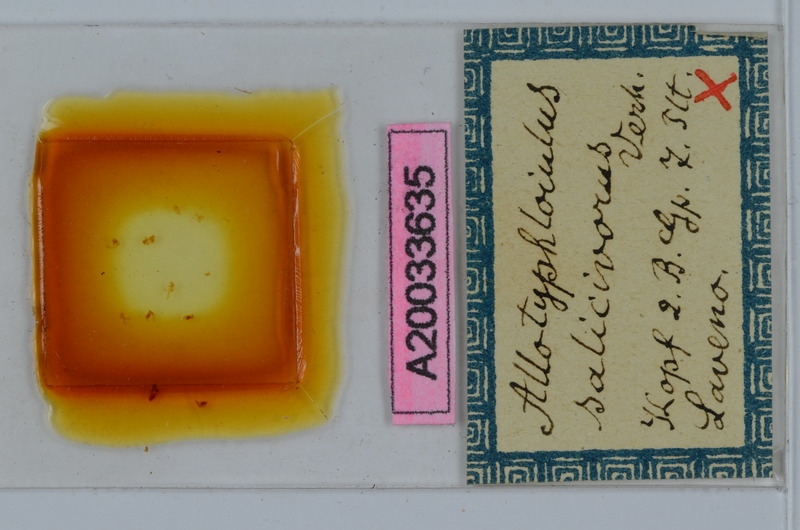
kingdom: Animalia
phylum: Arthropoda
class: Diplopoda
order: Julida
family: Julidae
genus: Allotyphloiulus
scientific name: Allotyphloiulus
